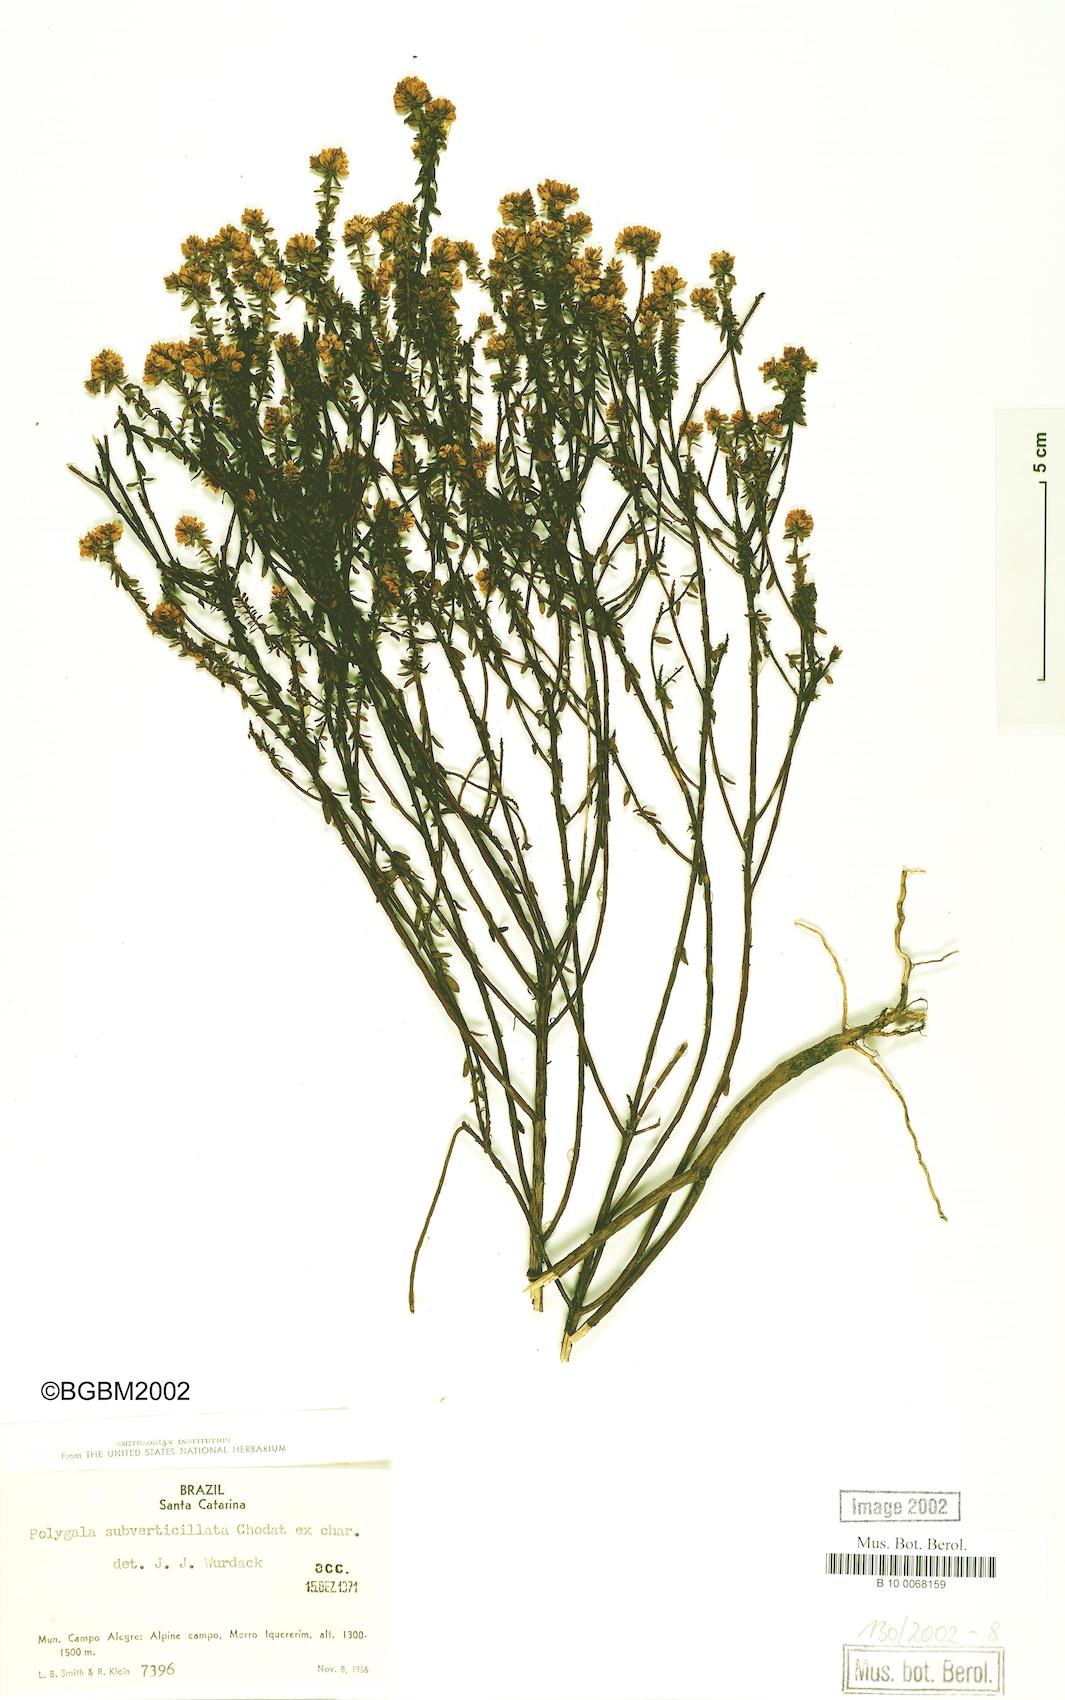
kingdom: Plantae
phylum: Tracheophyta
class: Magnoliopsida
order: Fabales
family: Polygalaceae
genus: Polygala
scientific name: Polygala subverticillata
